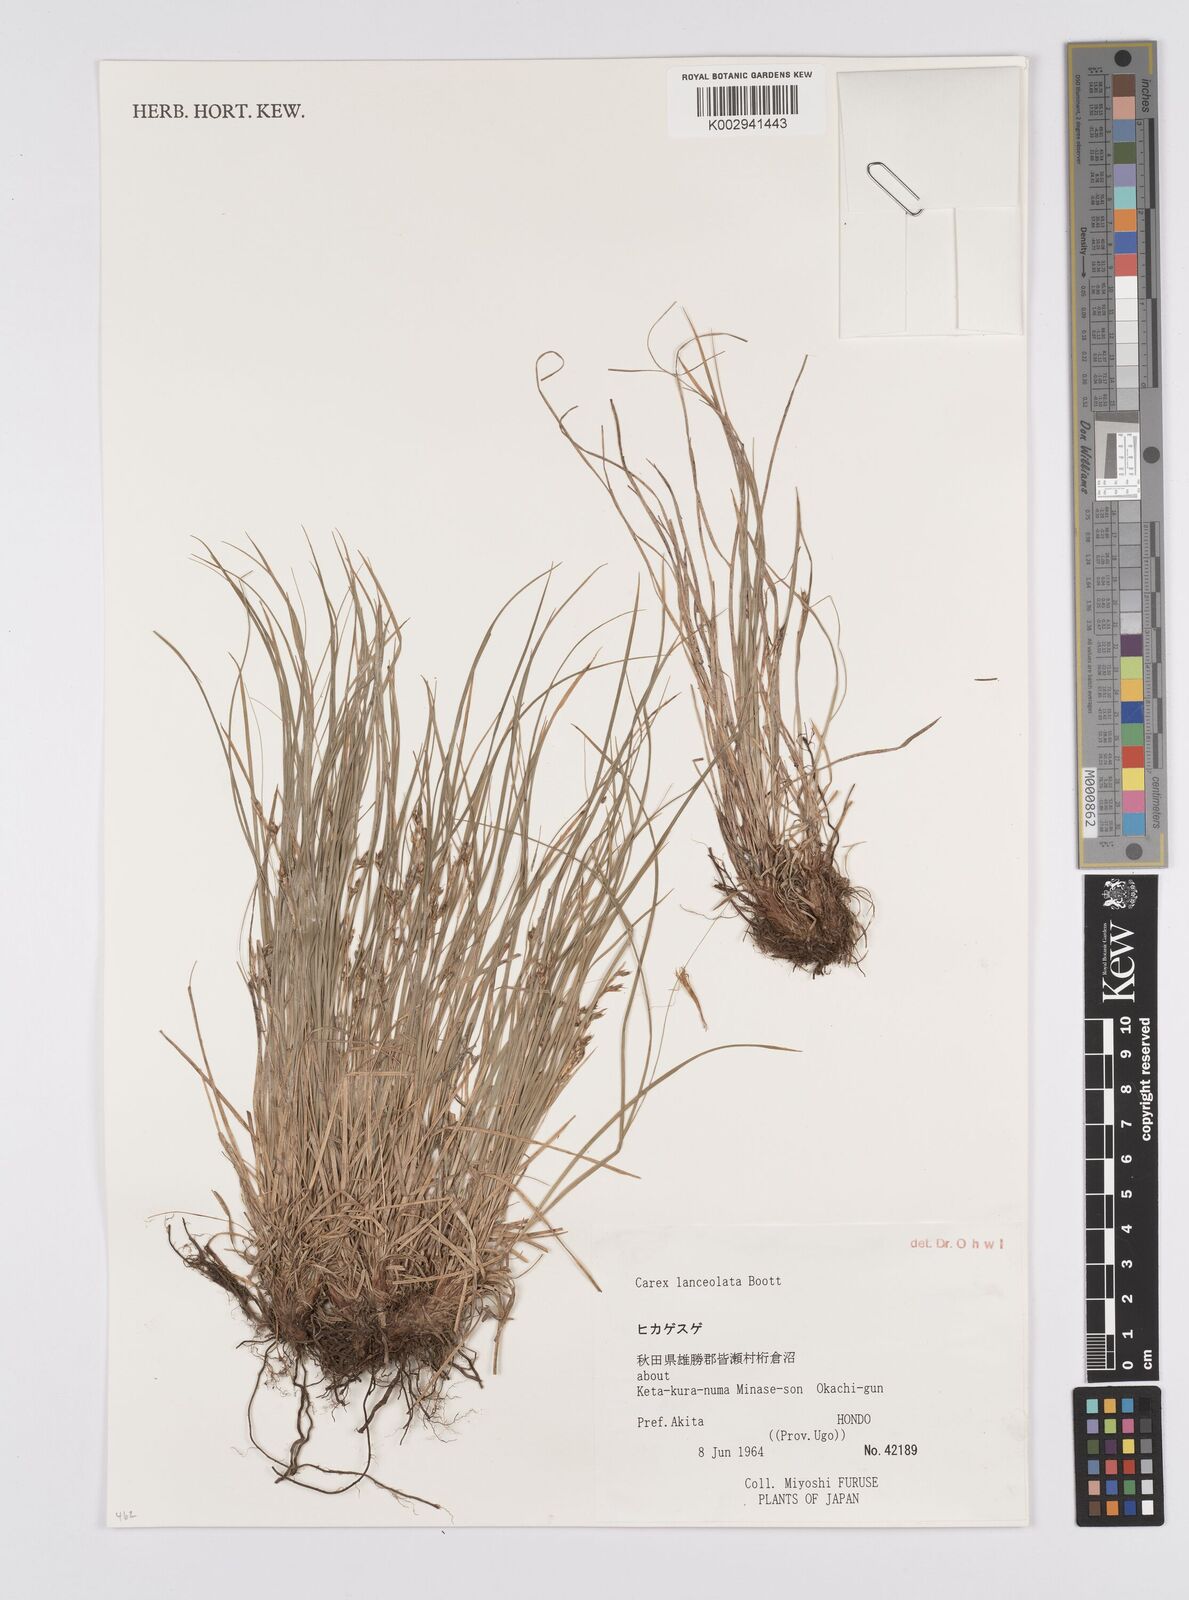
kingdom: Plantae
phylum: Tracheophyta
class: Liliopsida
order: Poales
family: Cyperaceae
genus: Carex
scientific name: Carex lanceolata
